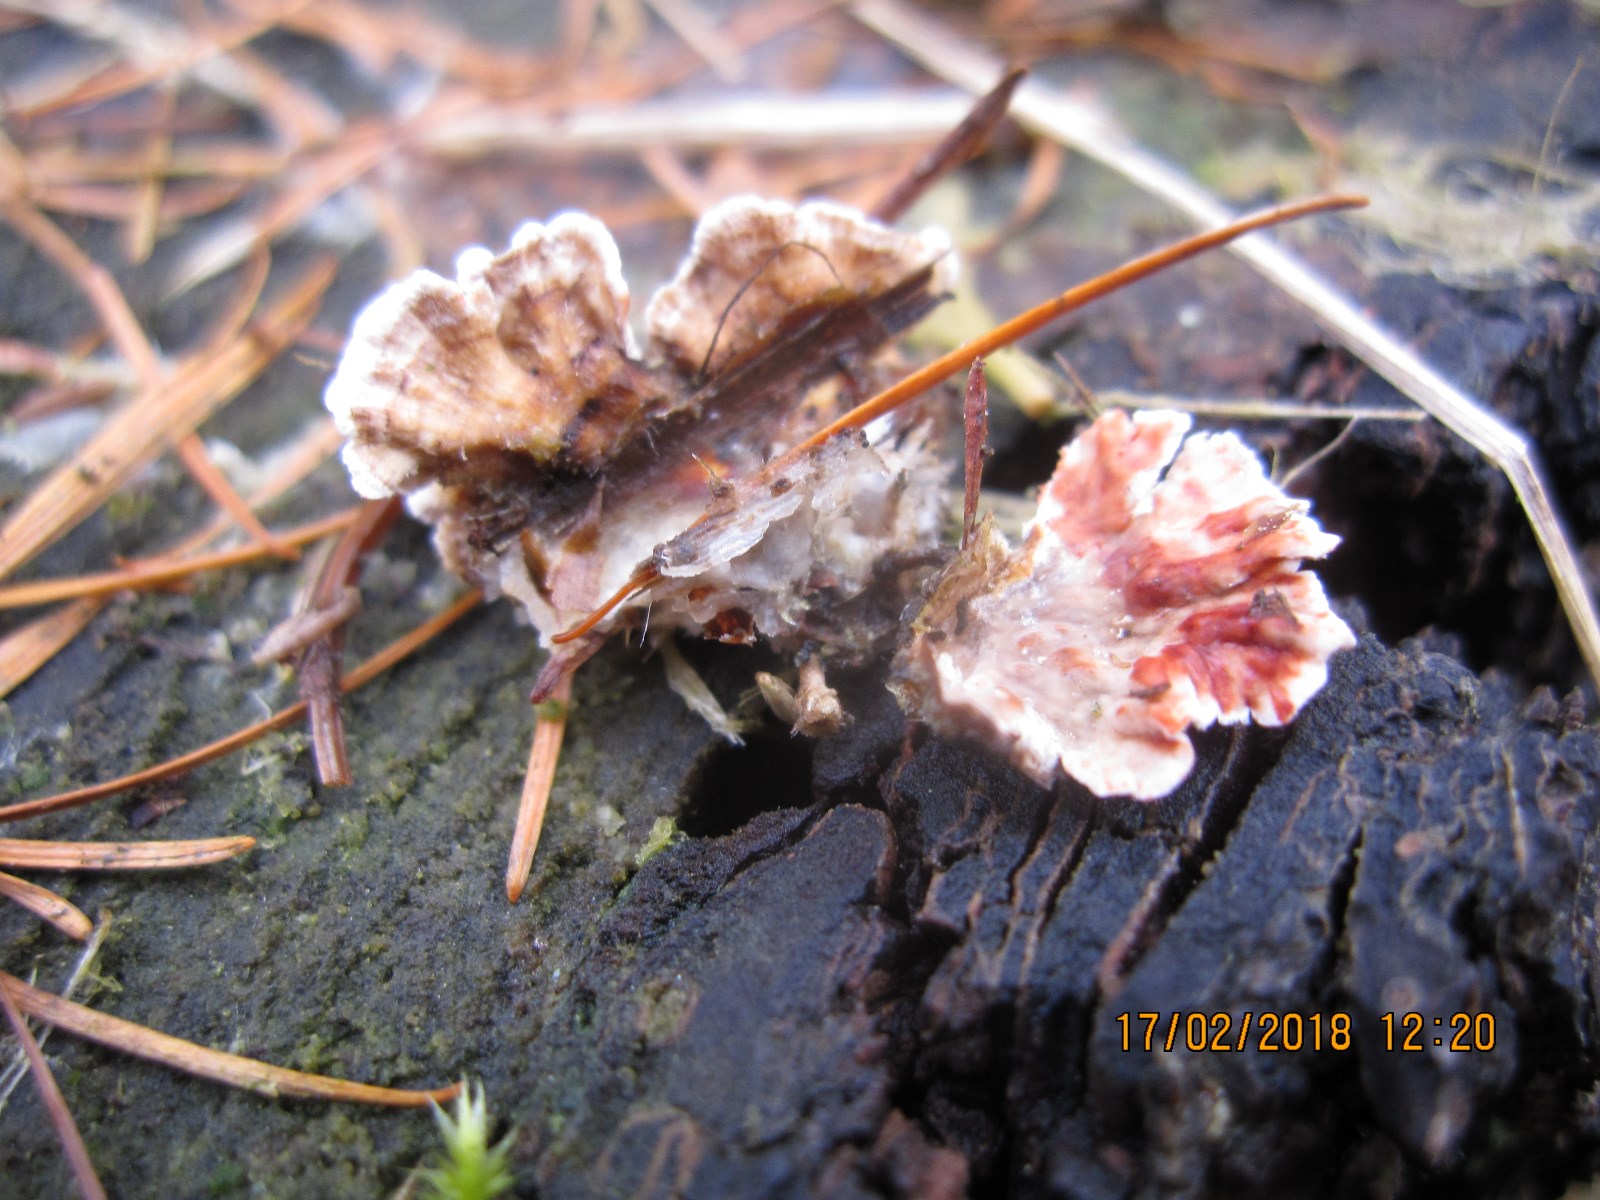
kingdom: Fungi
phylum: Basidiomycota
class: Agaricomycetes
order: Russulales
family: Stereaceae
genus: Stereum
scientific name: Stereum sanguinolentum
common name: blødende lædersvamp
